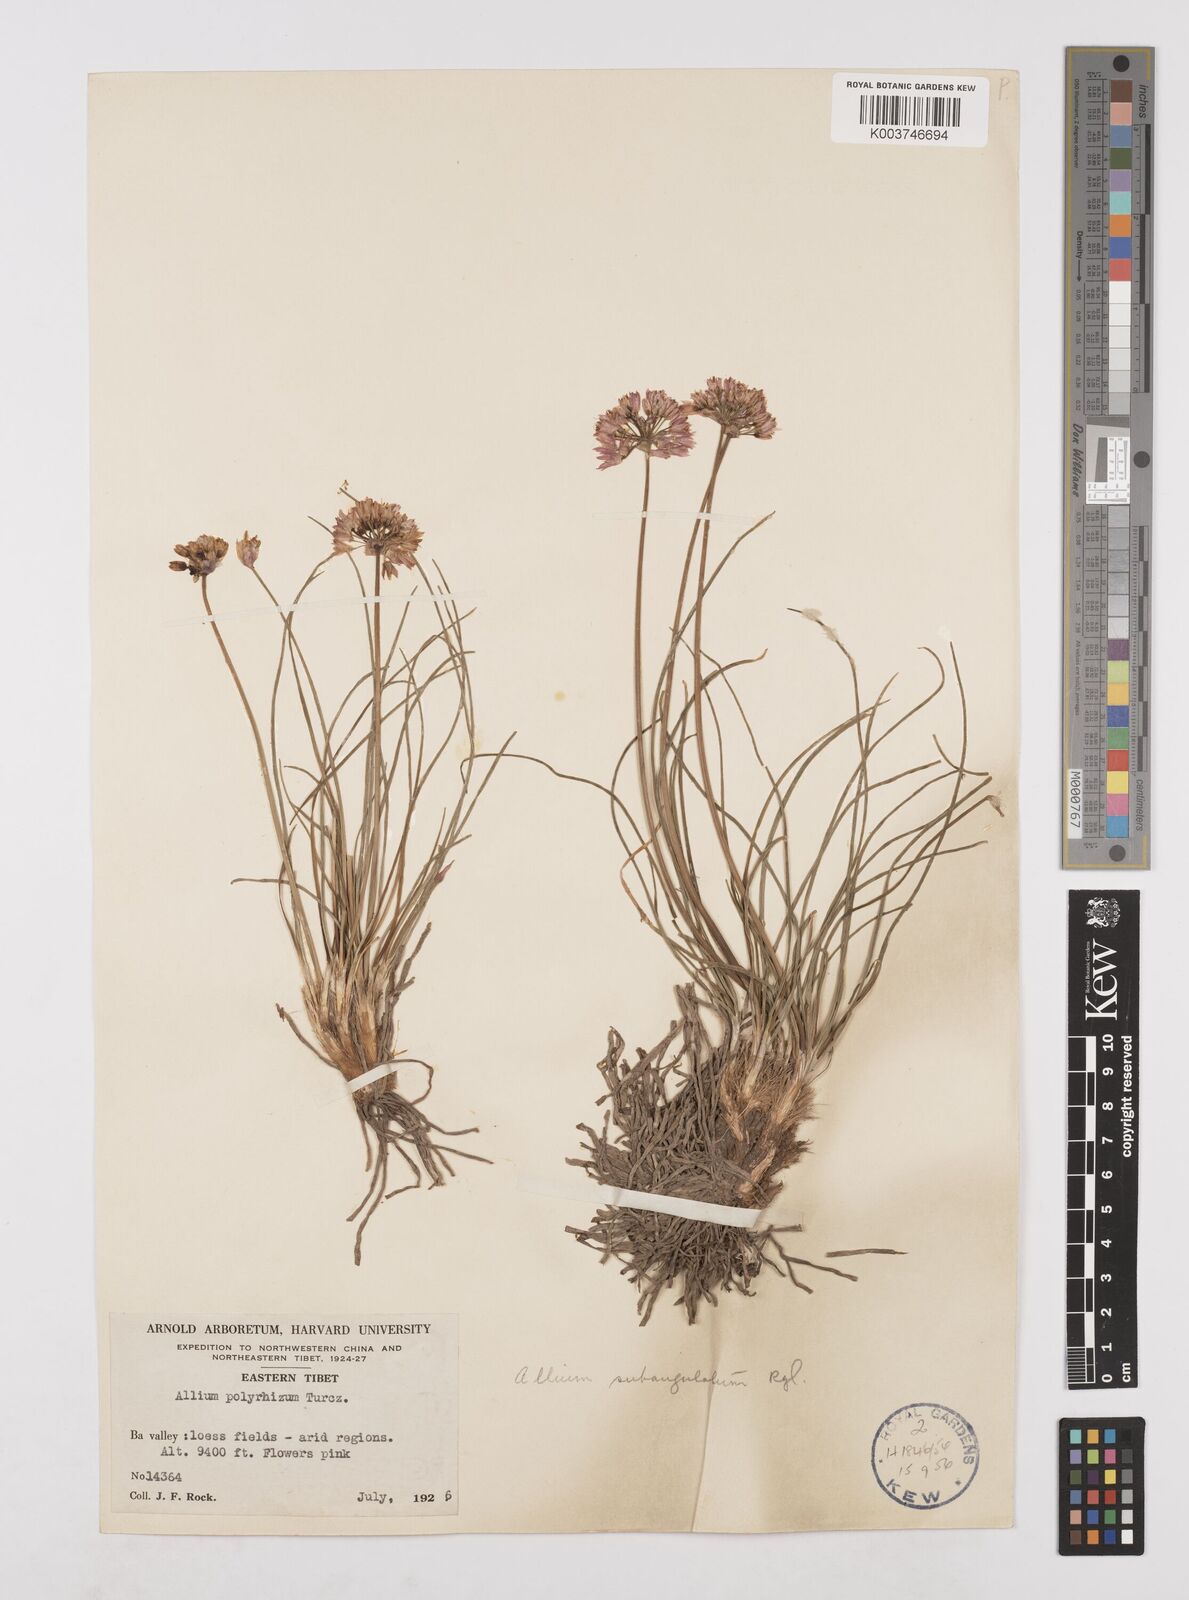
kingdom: Plantae
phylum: Tracheophyta
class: Liliopsida
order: Asparagales
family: Amaryllidaceae
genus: Allium
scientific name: Allium subangulatum
